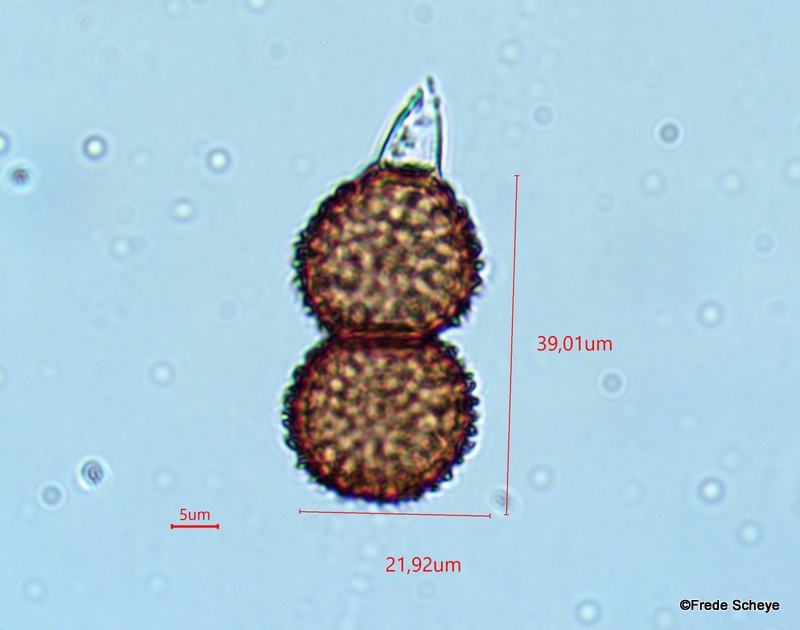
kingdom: Fungi
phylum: Basidiomycota
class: Pucciniomycetes
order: Pucciniales
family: Tranzscheliaceae
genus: Tranzschelia
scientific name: Tranzschelia anemones
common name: anemone-knæksporerust
